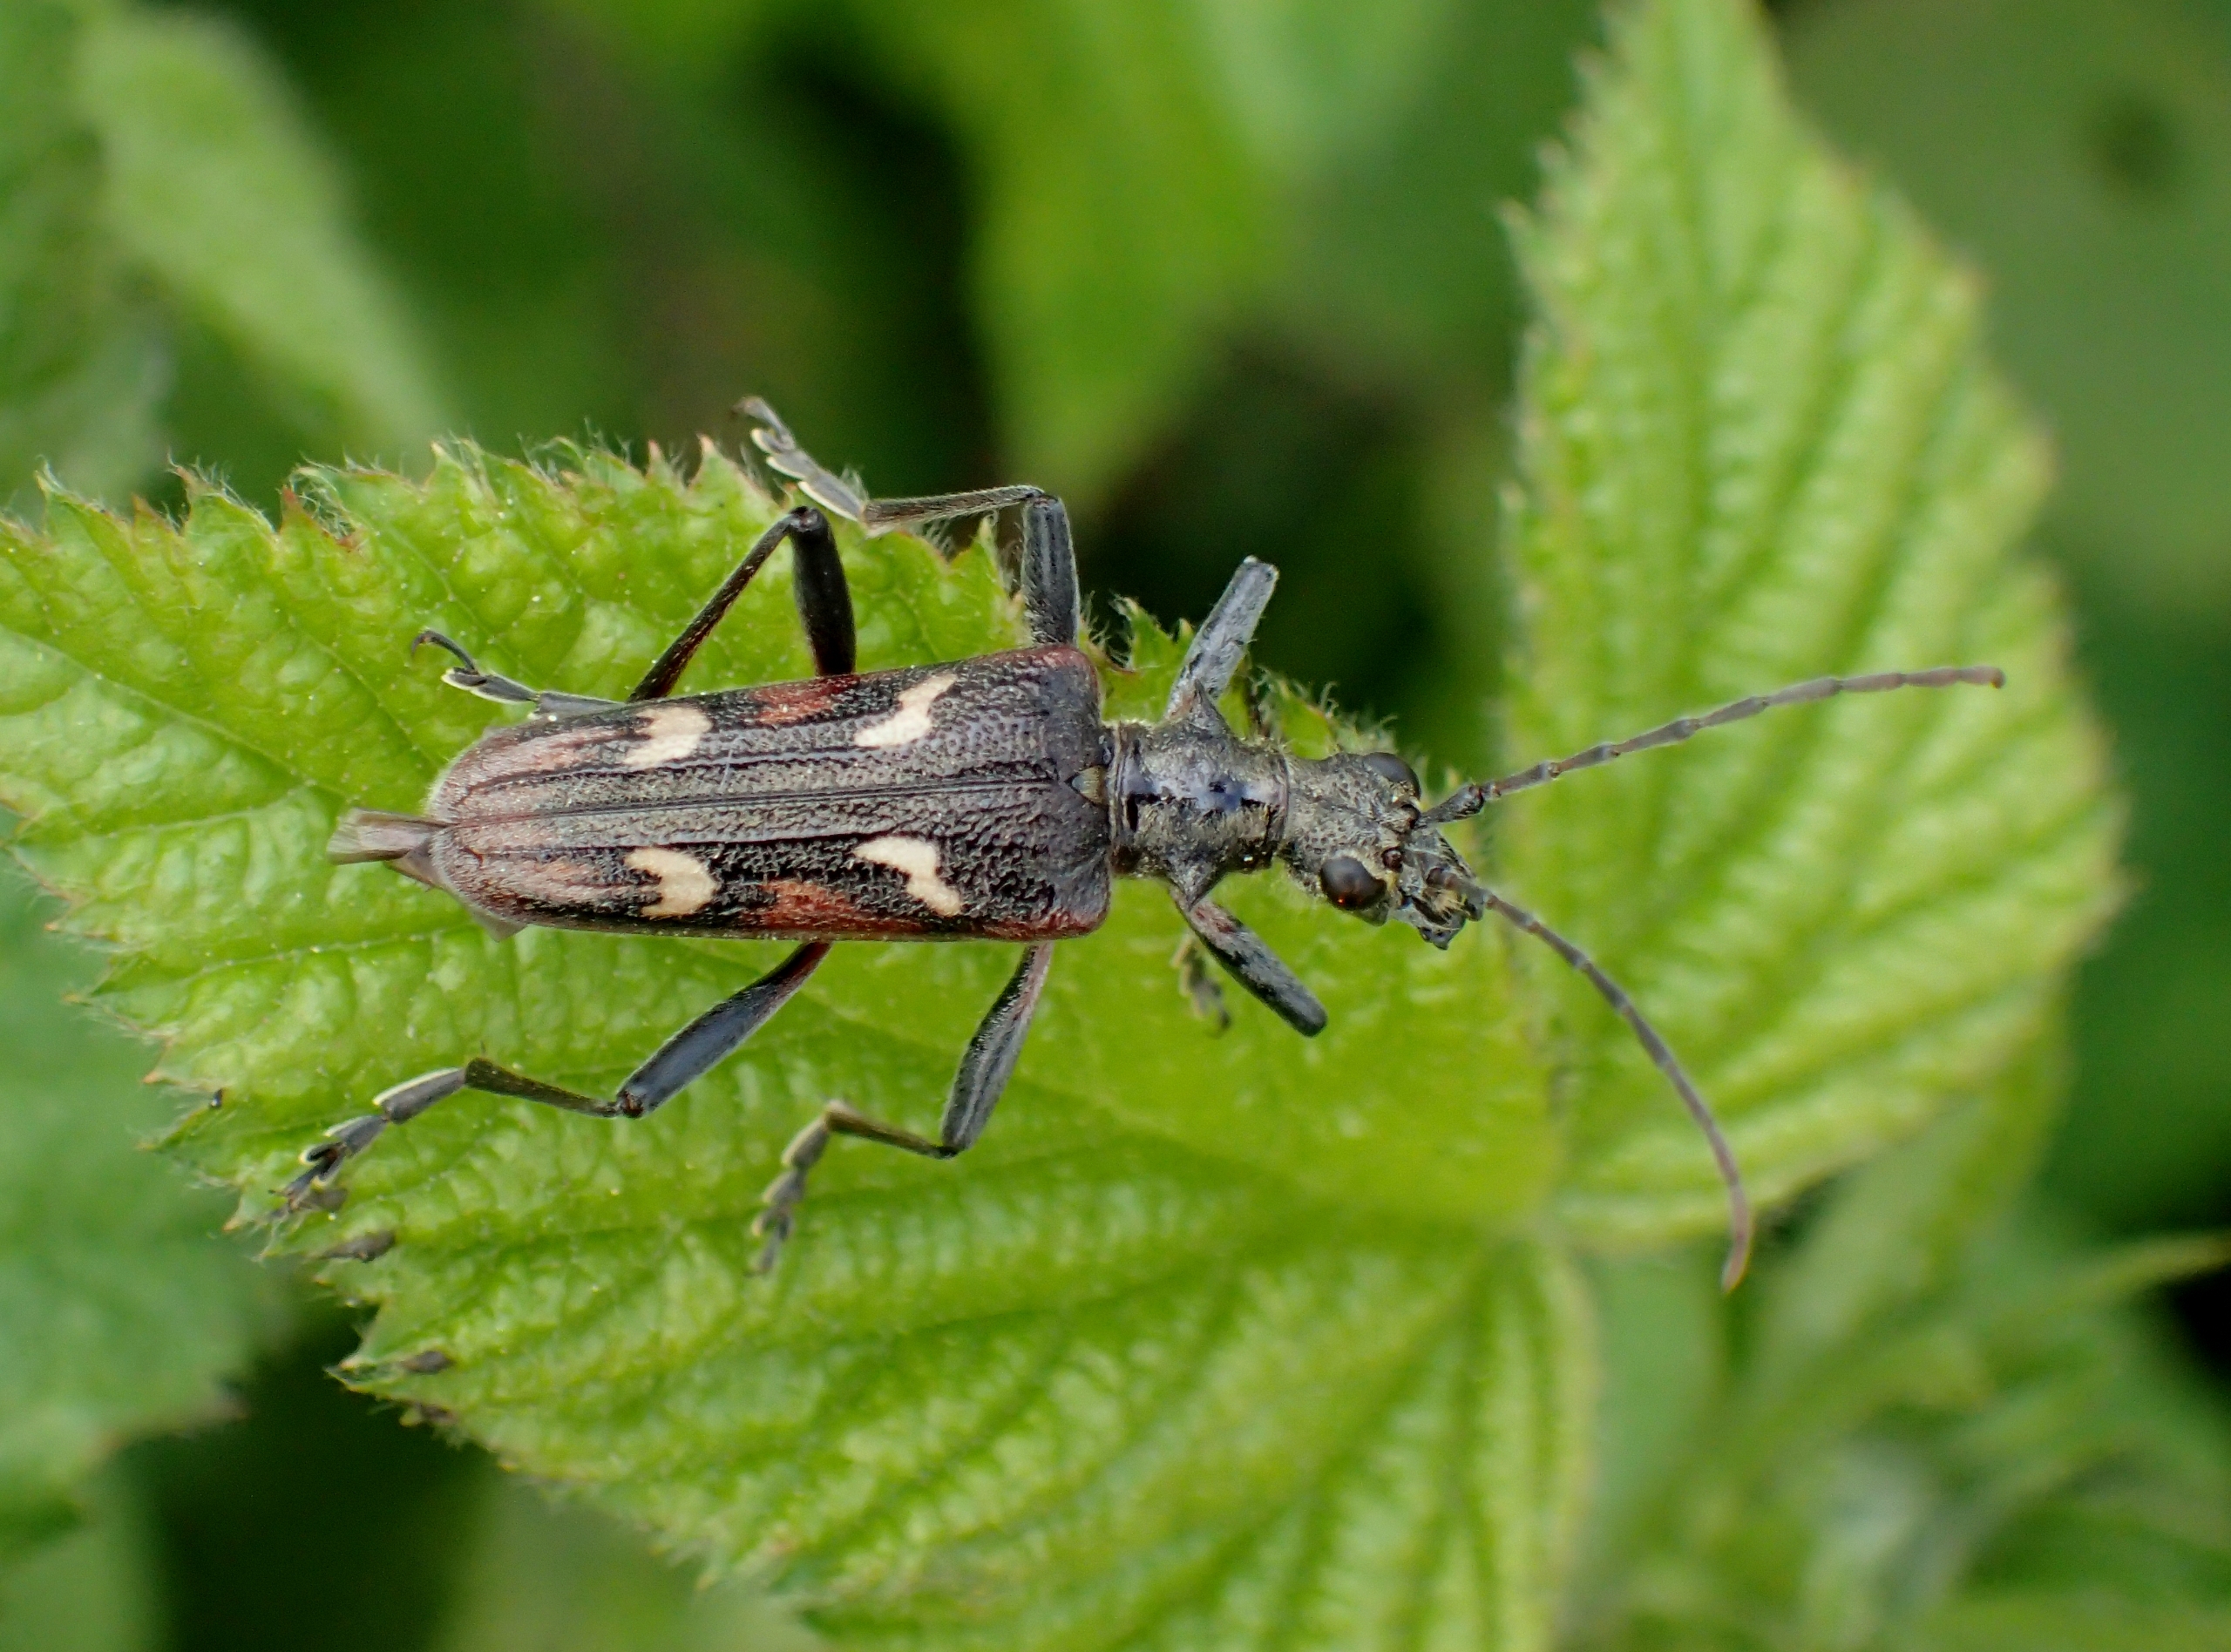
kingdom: Animalia
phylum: Arthropoda
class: Insecta
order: Coleoptera
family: Cerambycidae
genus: Rhagium
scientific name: Rhagium bifasciatum
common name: Båndet tandbuk
